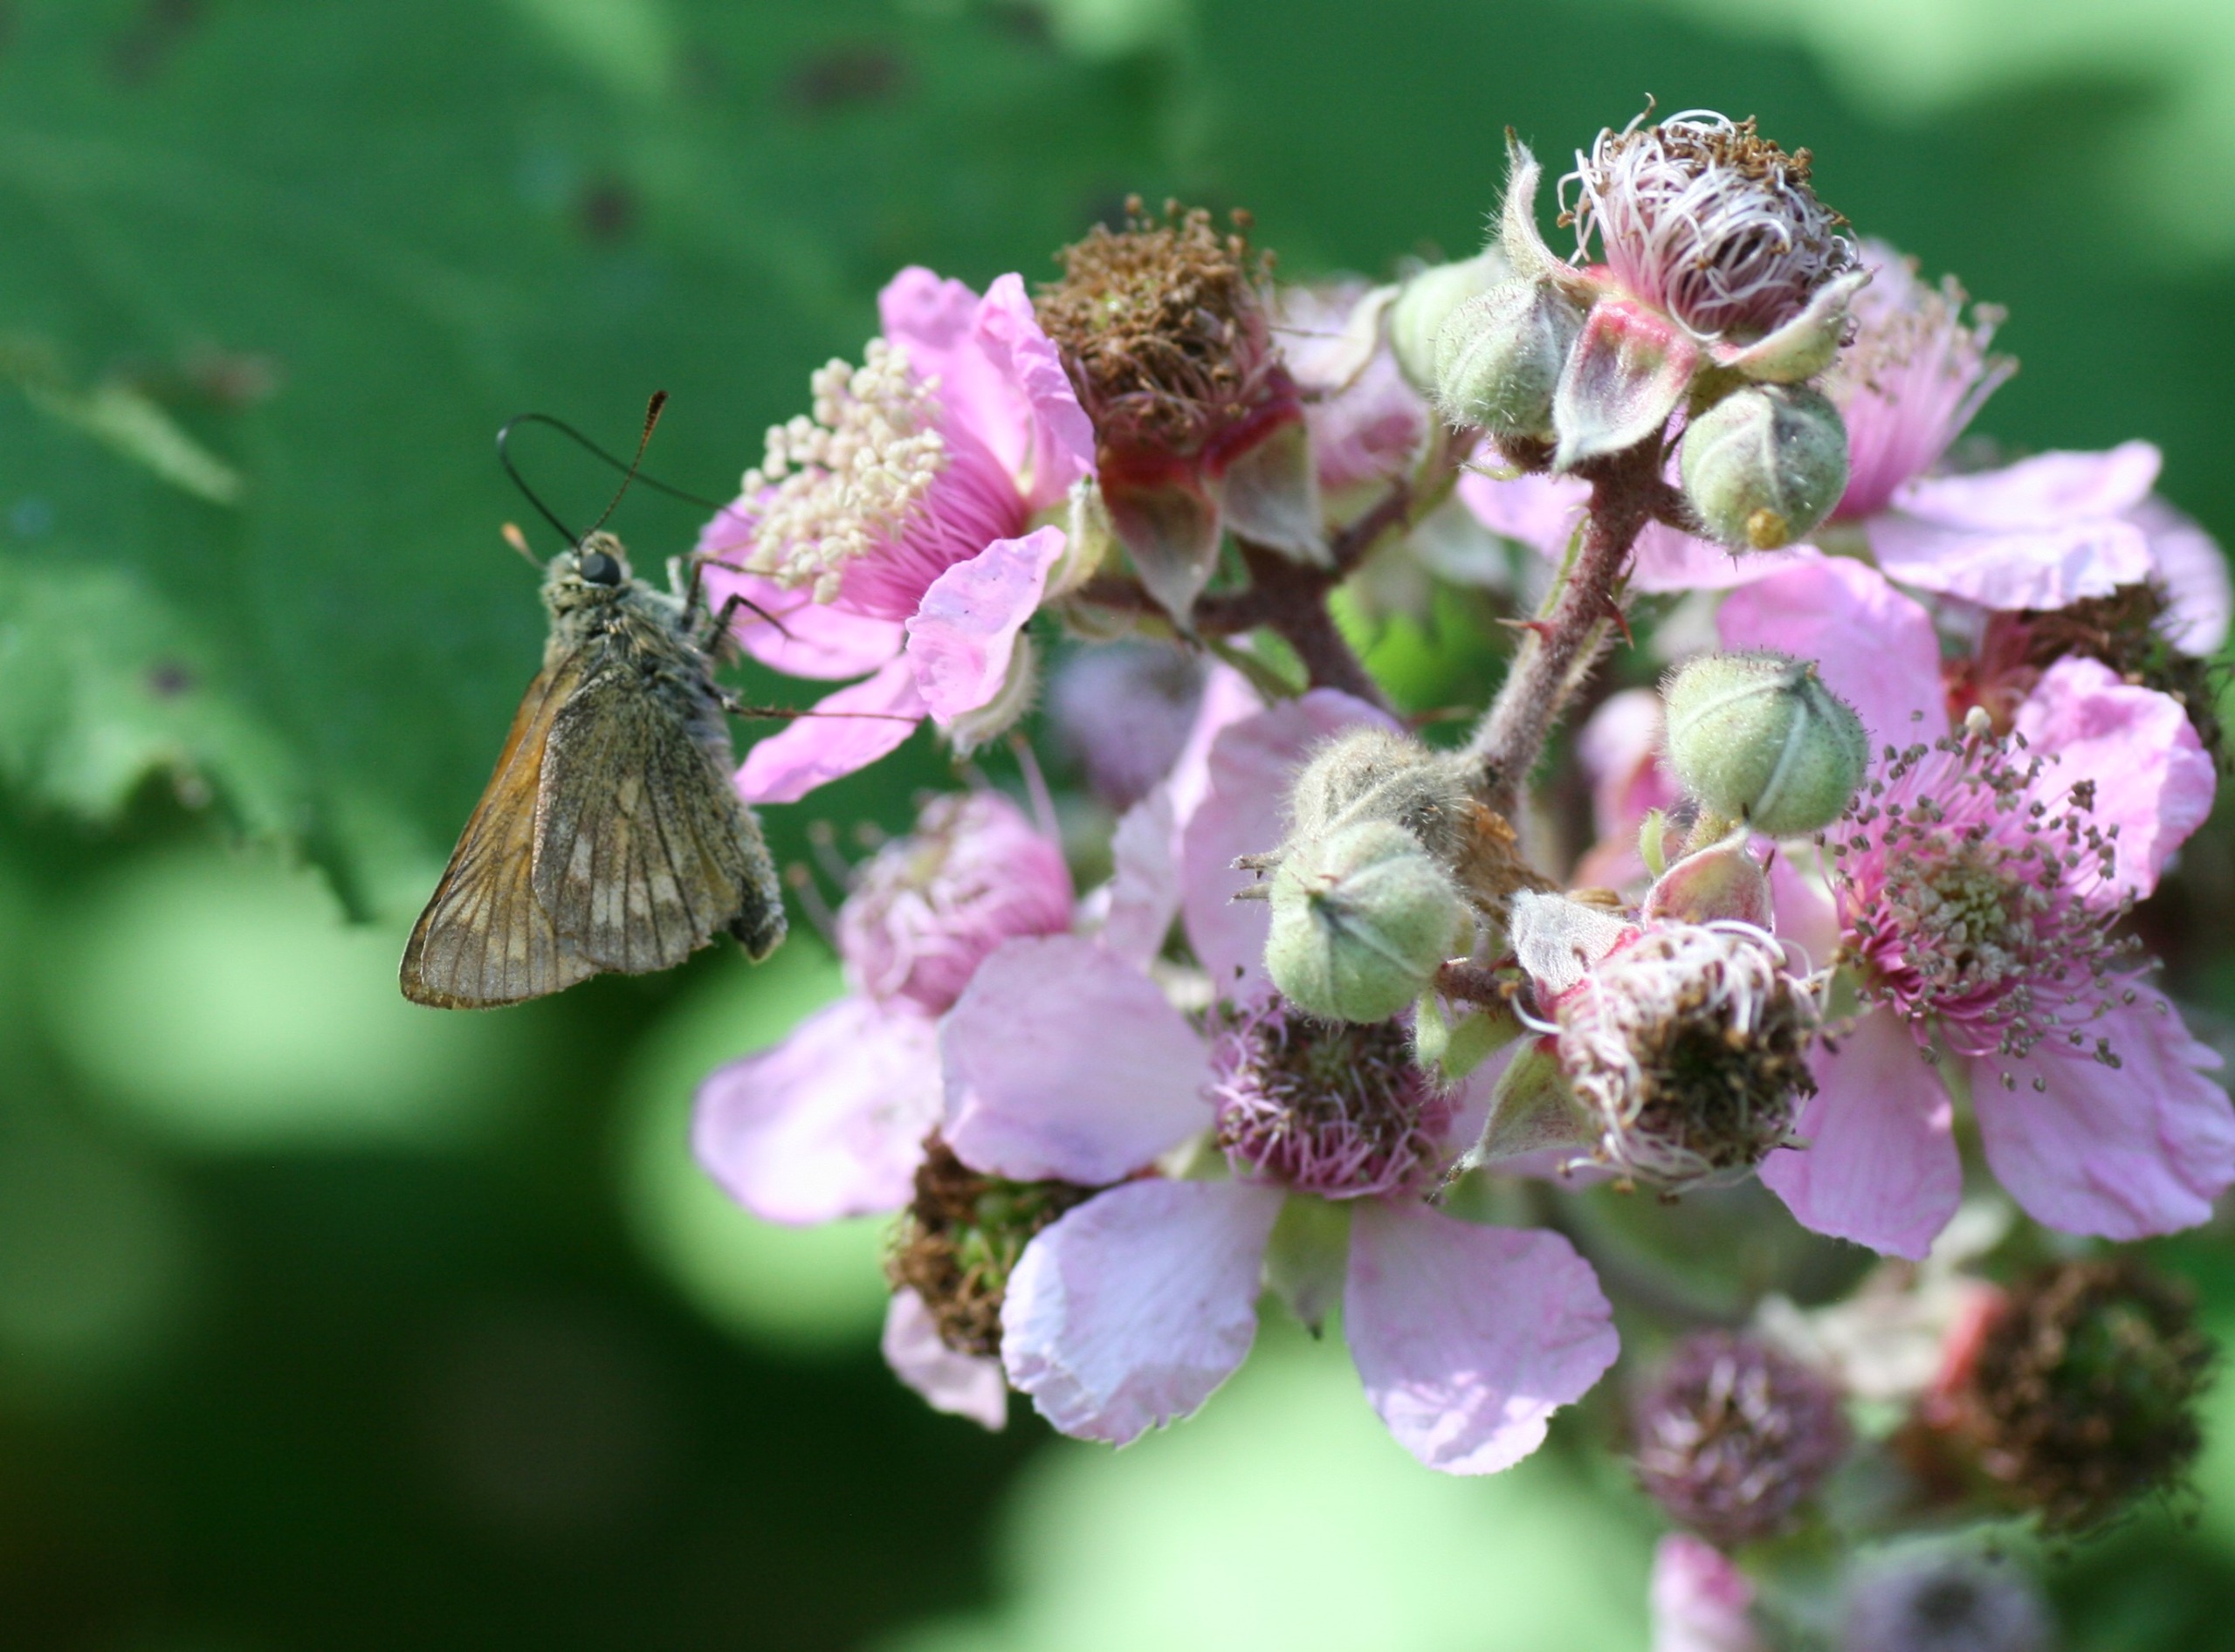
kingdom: Animalia
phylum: Arthropoda
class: Insecta
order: Lepidoptera
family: Hesperiidae
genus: Ochlodes
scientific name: Ochlodes venata
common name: Stor bredpande
